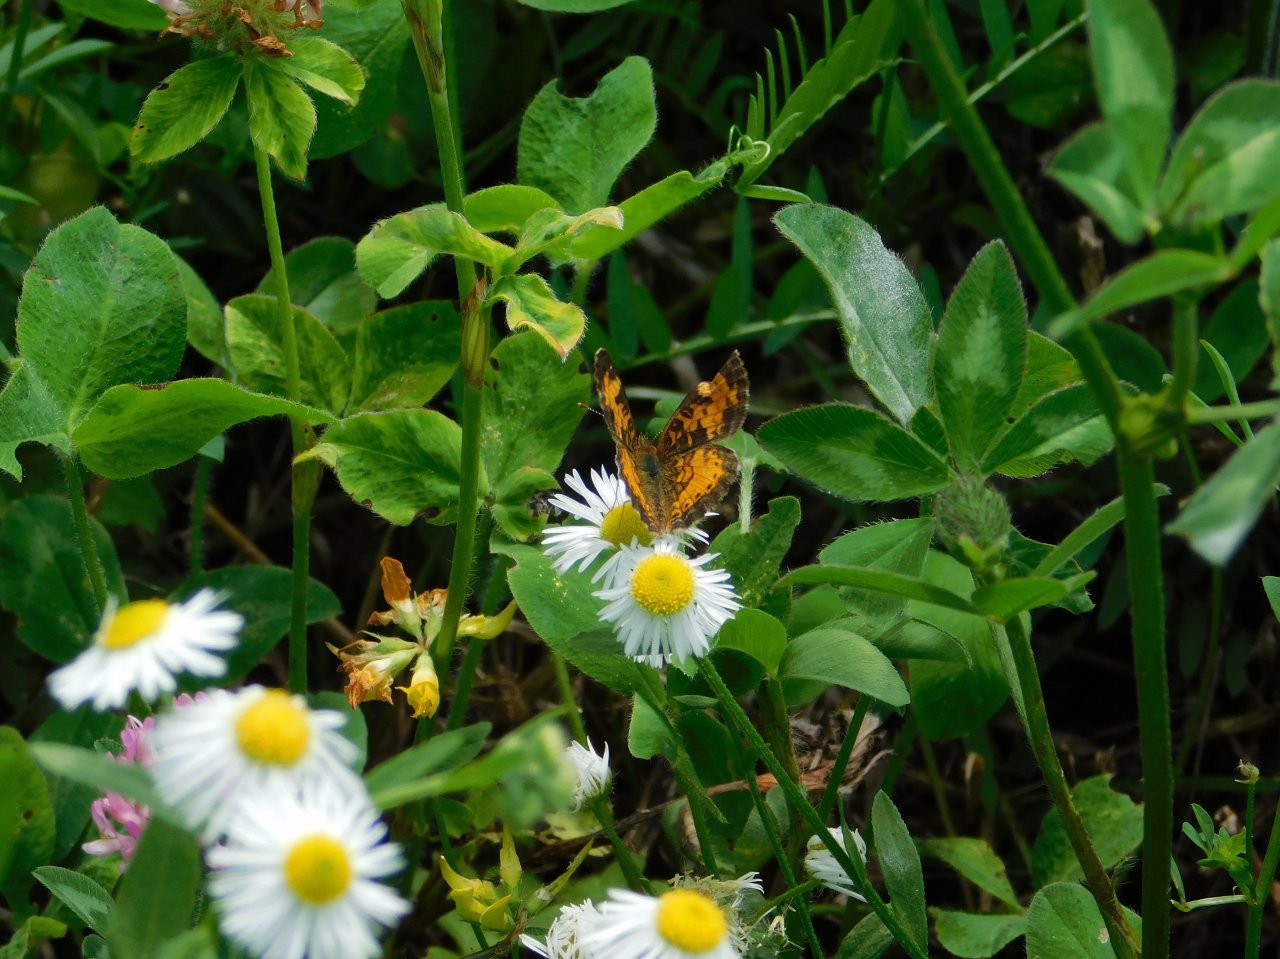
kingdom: Animalia
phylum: Arthropoda
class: Insecta
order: Lepidoptera
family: Nymphalidae
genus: Phyciodes
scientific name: Phyciodes tharos
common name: Northern Crescent
